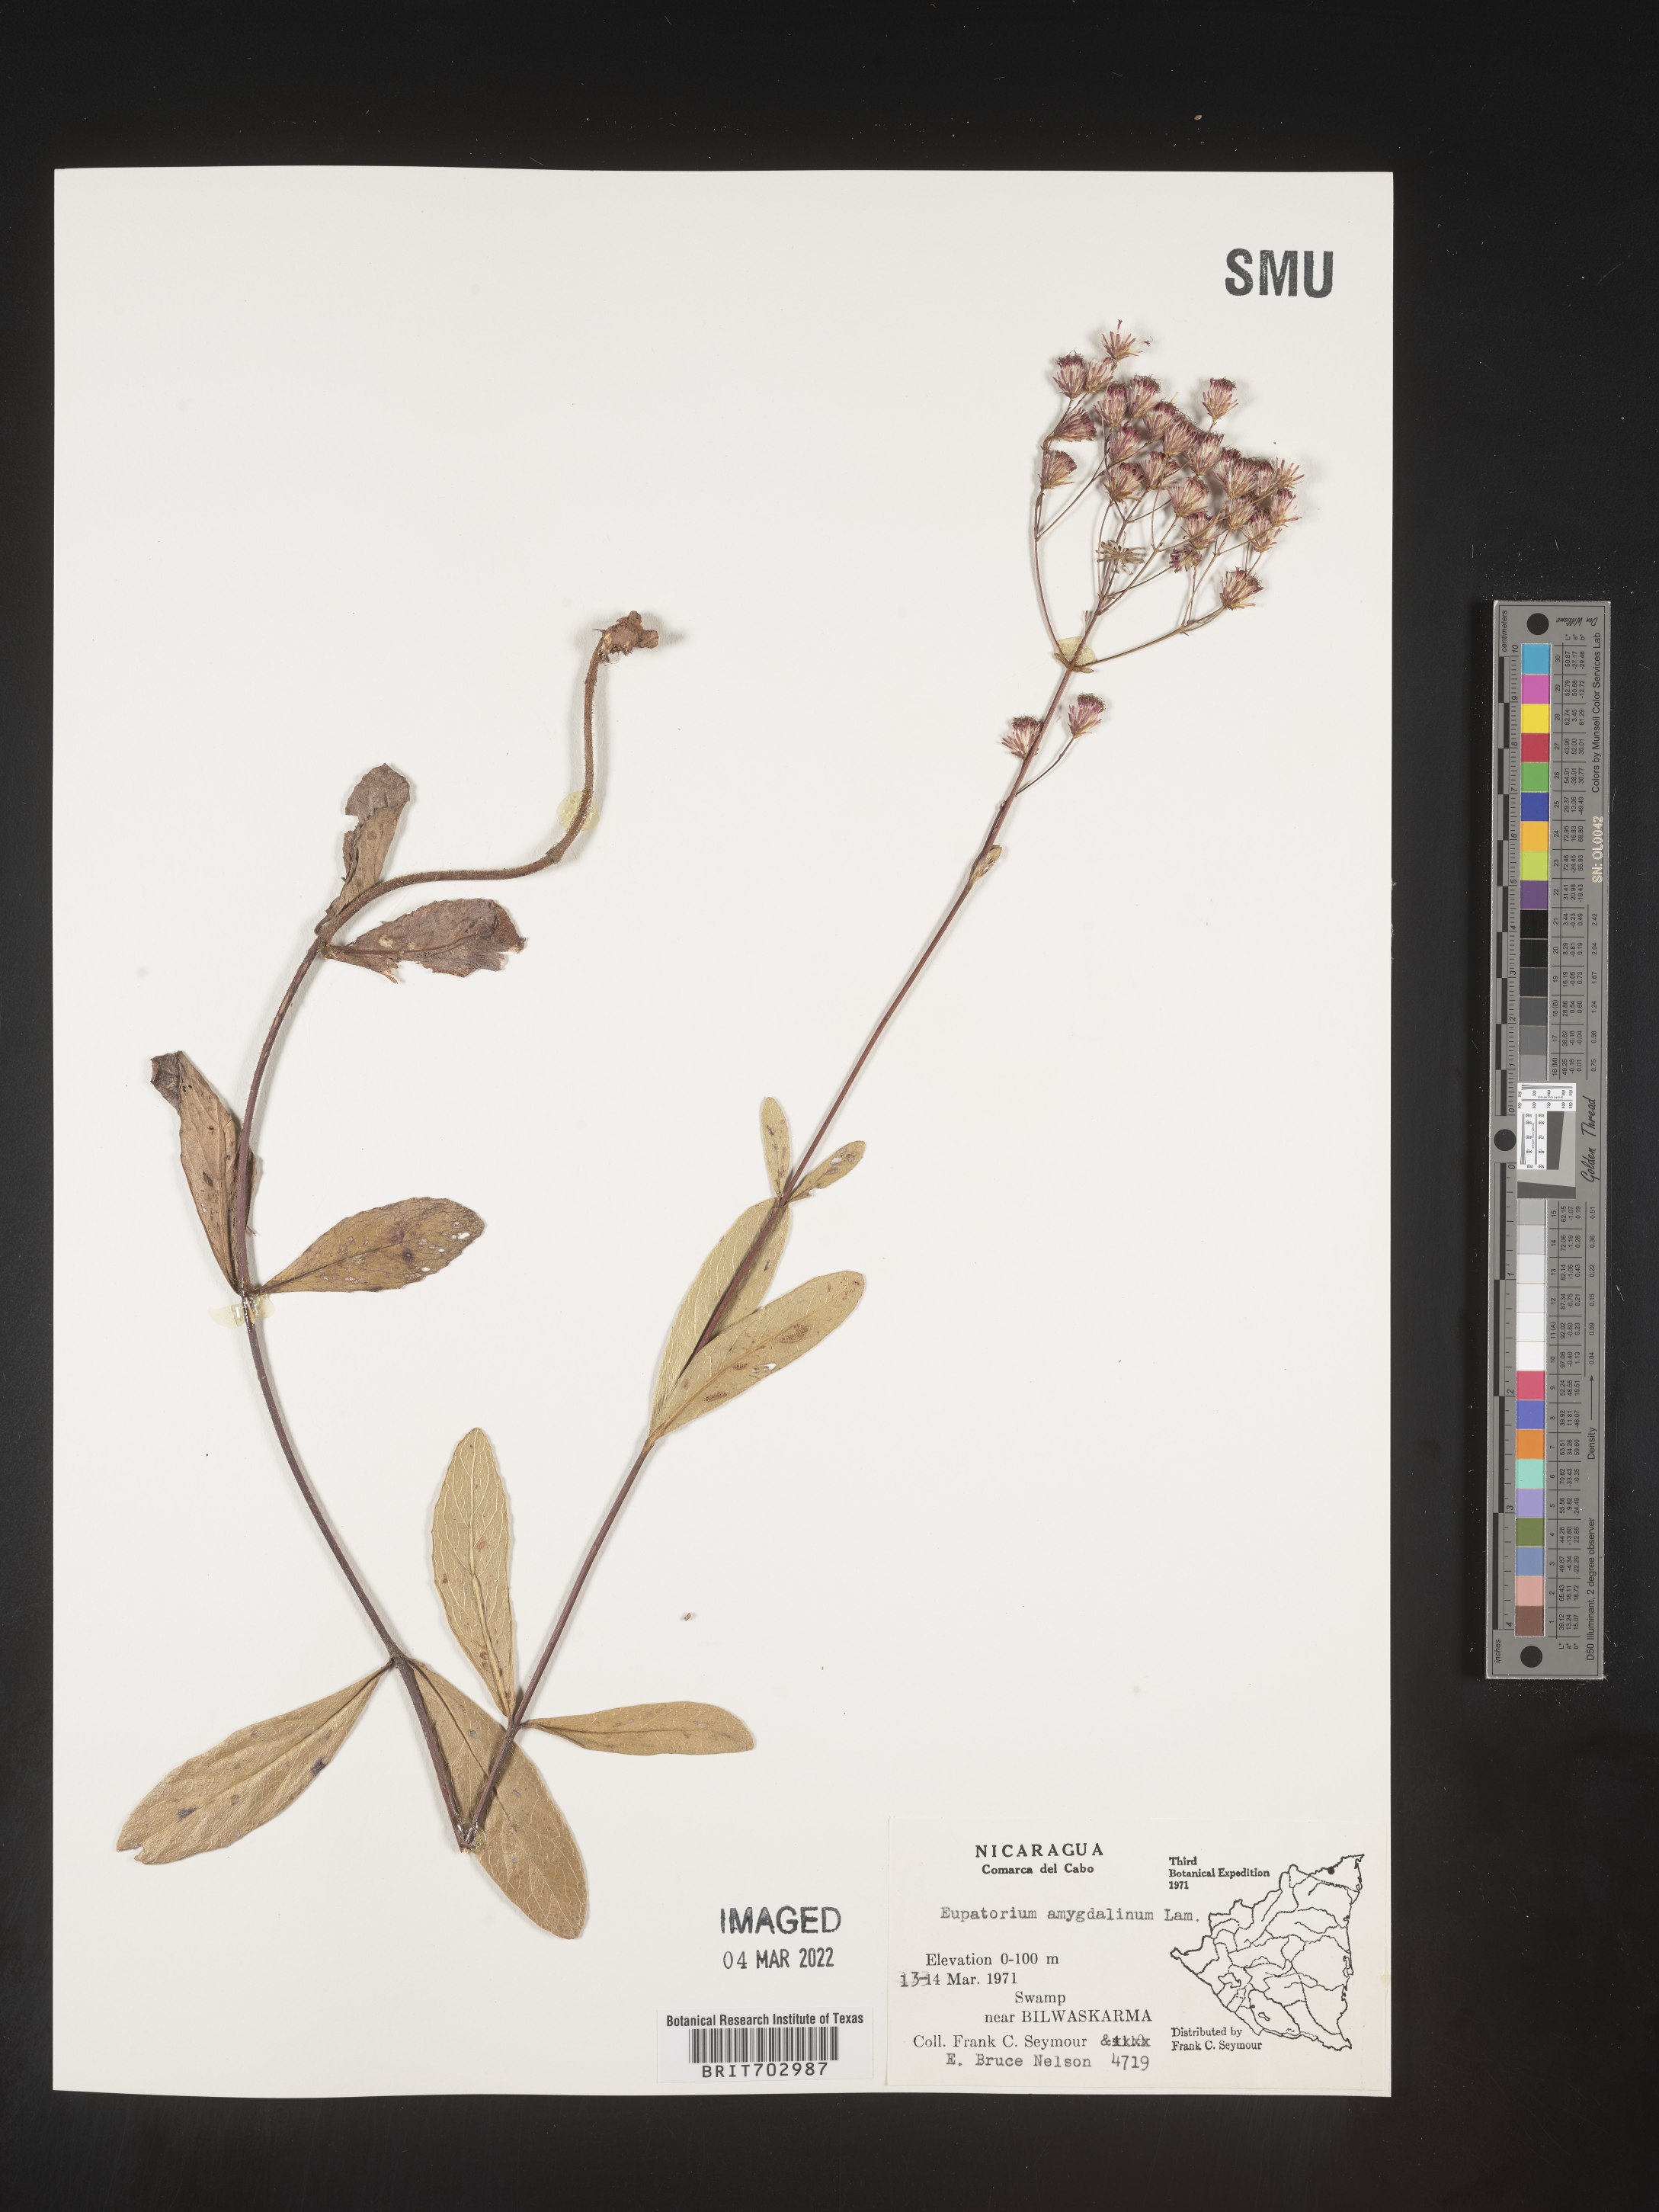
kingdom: Plantae
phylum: Tracheophyta
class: Magnoliopsida
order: Asterales
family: Asteraceae
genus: Eupatorium
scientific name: Eupatorium
